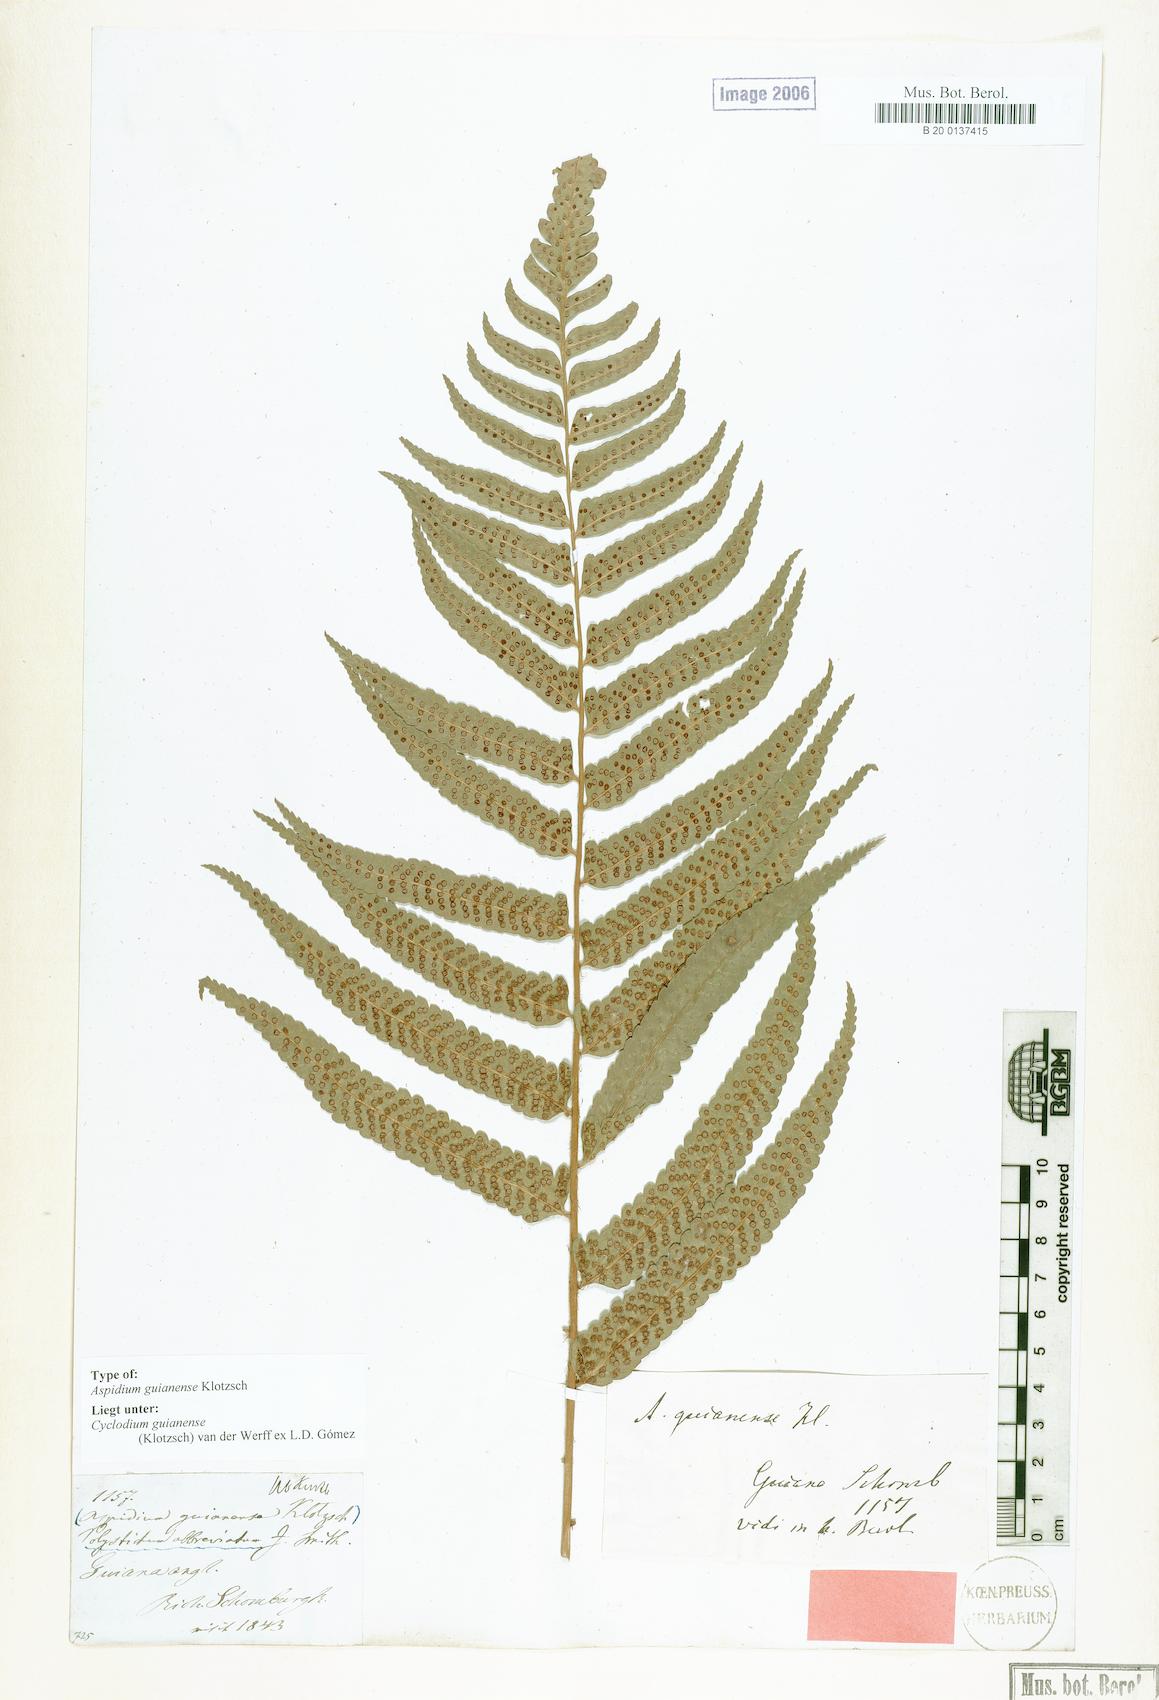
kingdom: Plantae
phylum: Tracheophyta
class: Polypodiopsida
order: Polypodiales
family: Dryopteridaceae
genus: Cyclodium
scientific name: Cyclodium guianense
